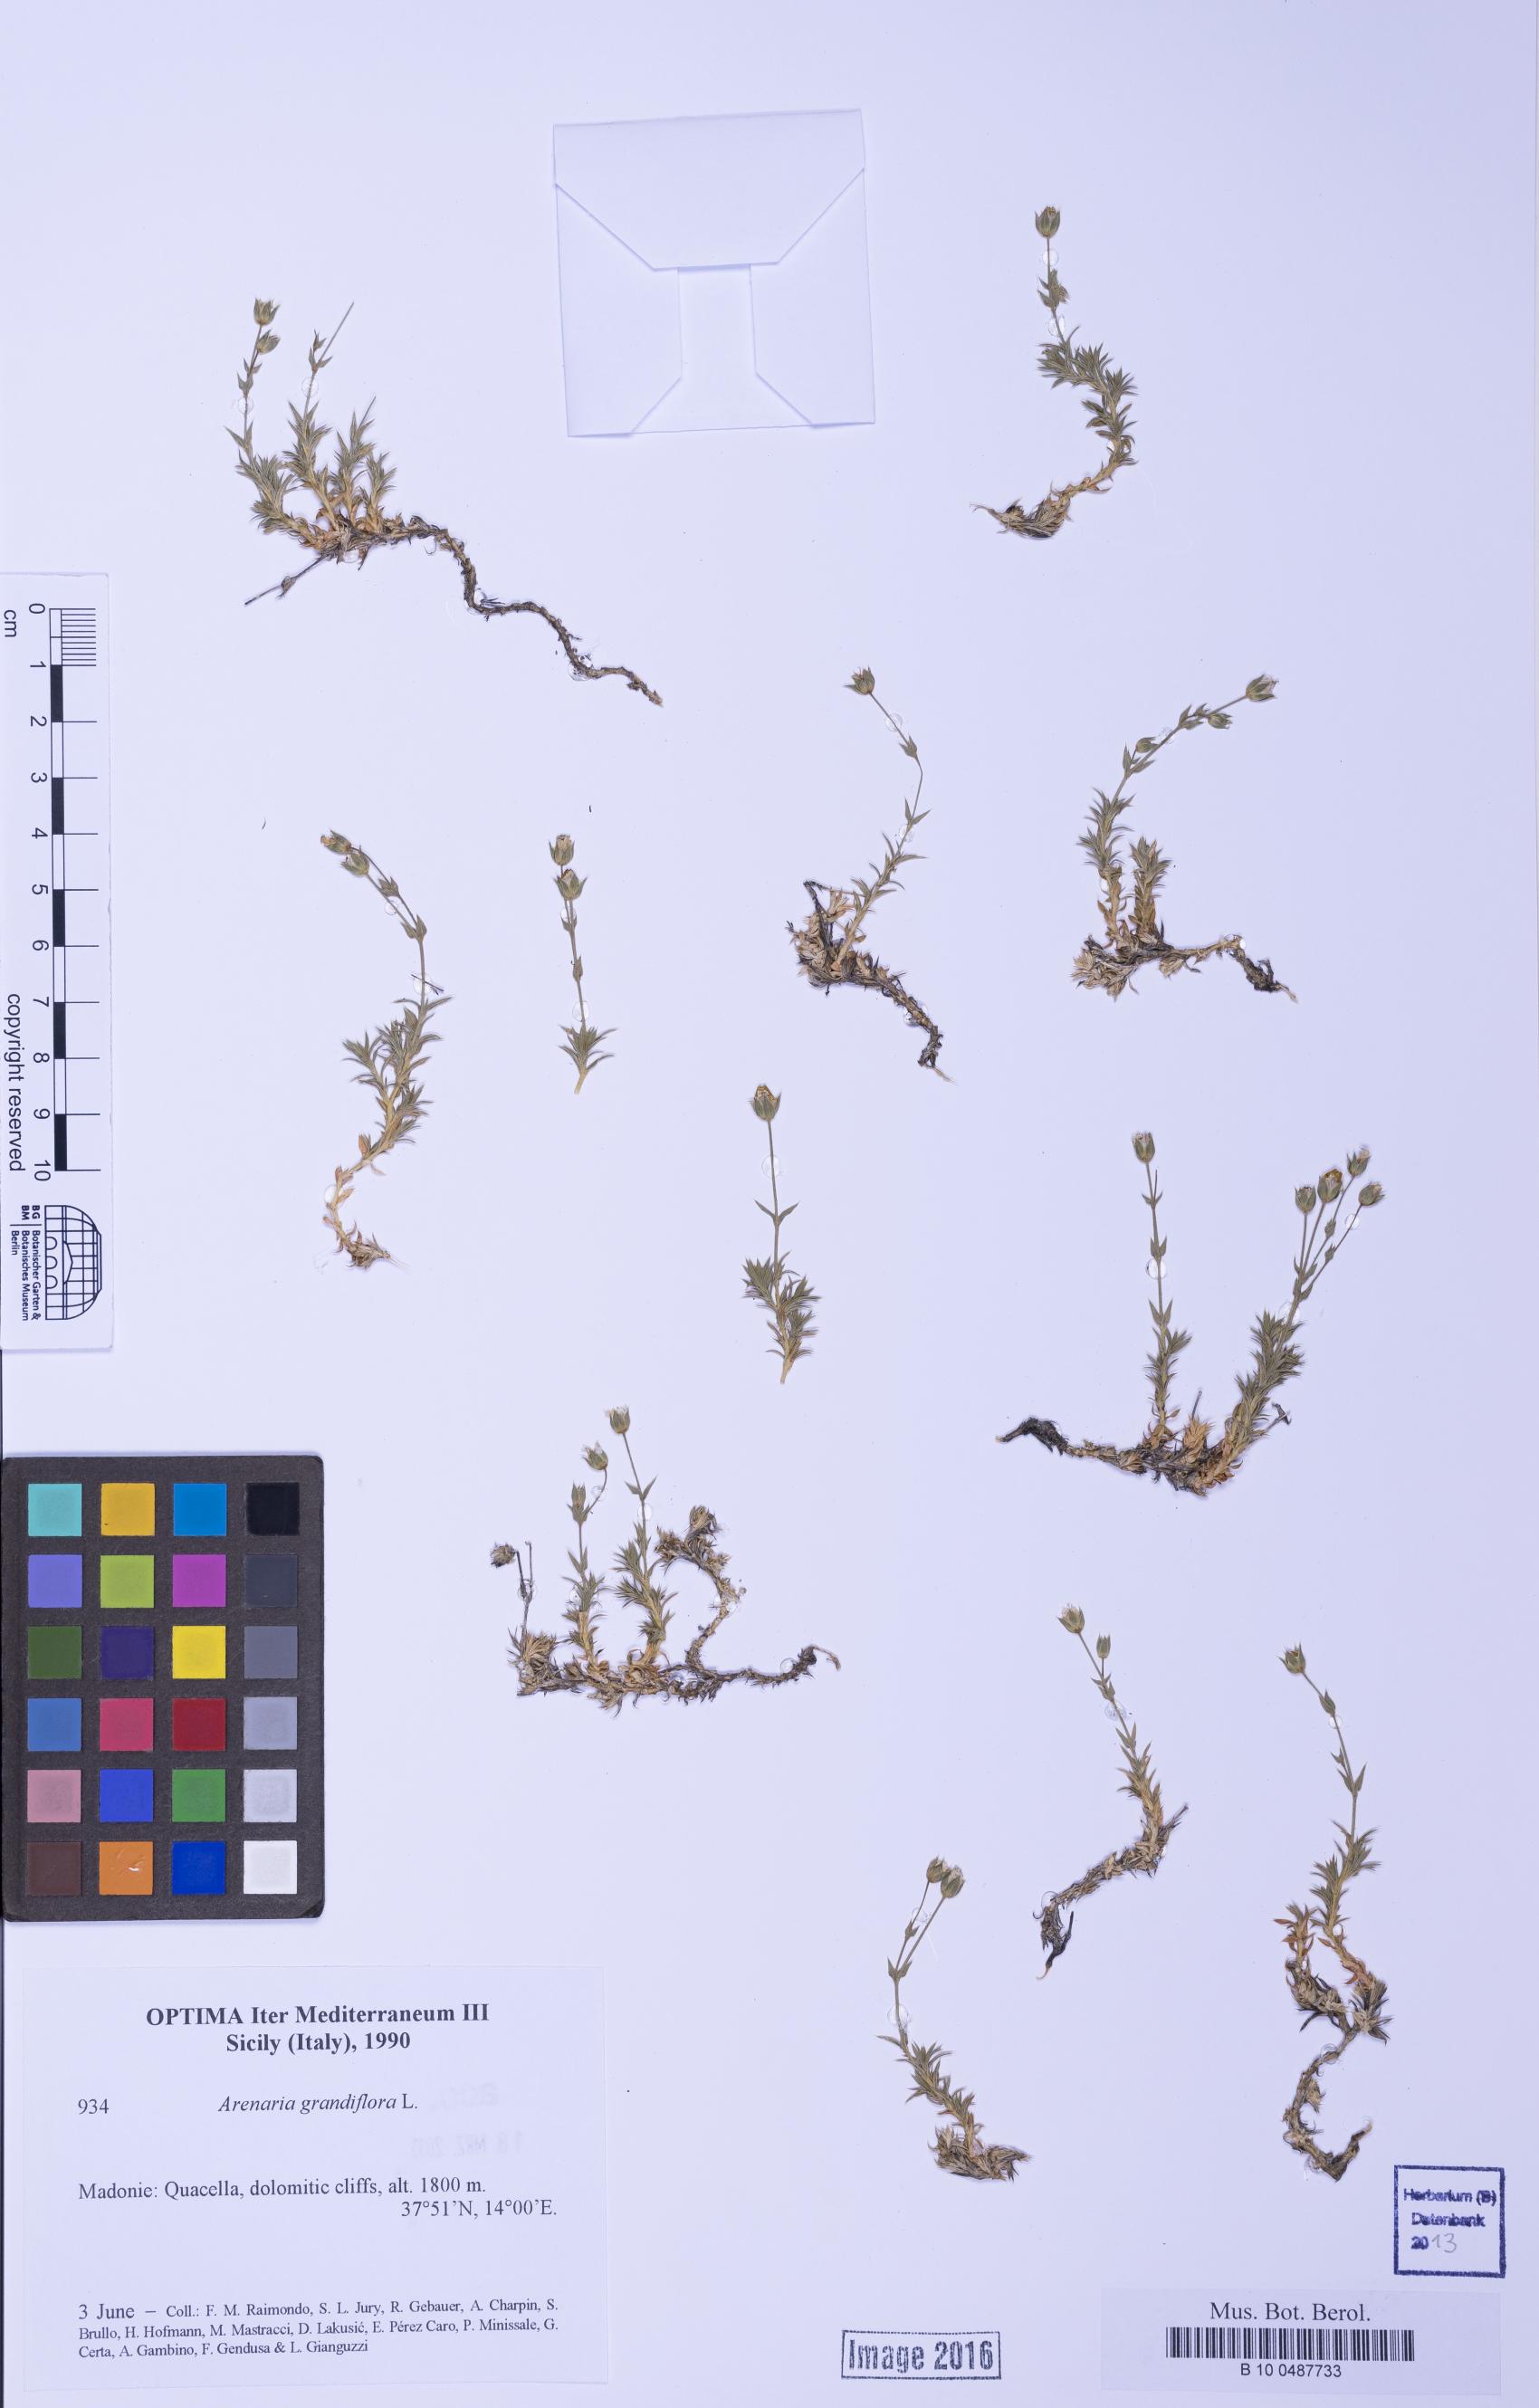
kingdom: Plantae
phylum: Tracheophyta
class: Magnoliopsida
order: Caryophyllales
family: Caryophyllaceae
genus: Arenaria
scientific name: Arenaria grandiflora
